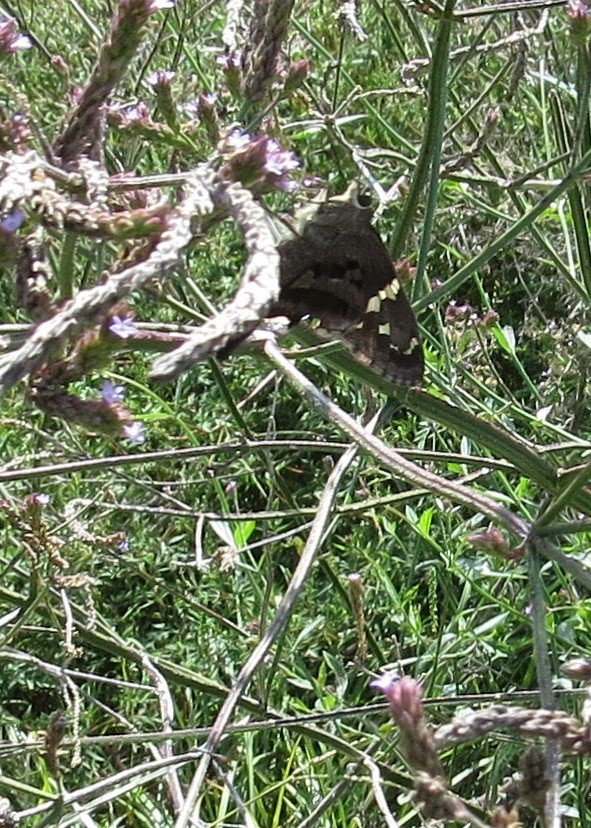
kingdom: Animalia
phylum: Arthropoda
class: Insecta
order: Lepidoptera
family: Hesperiidae
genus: Urbanus
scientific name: Urbanus proteus
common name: Long-tailed Skipper
